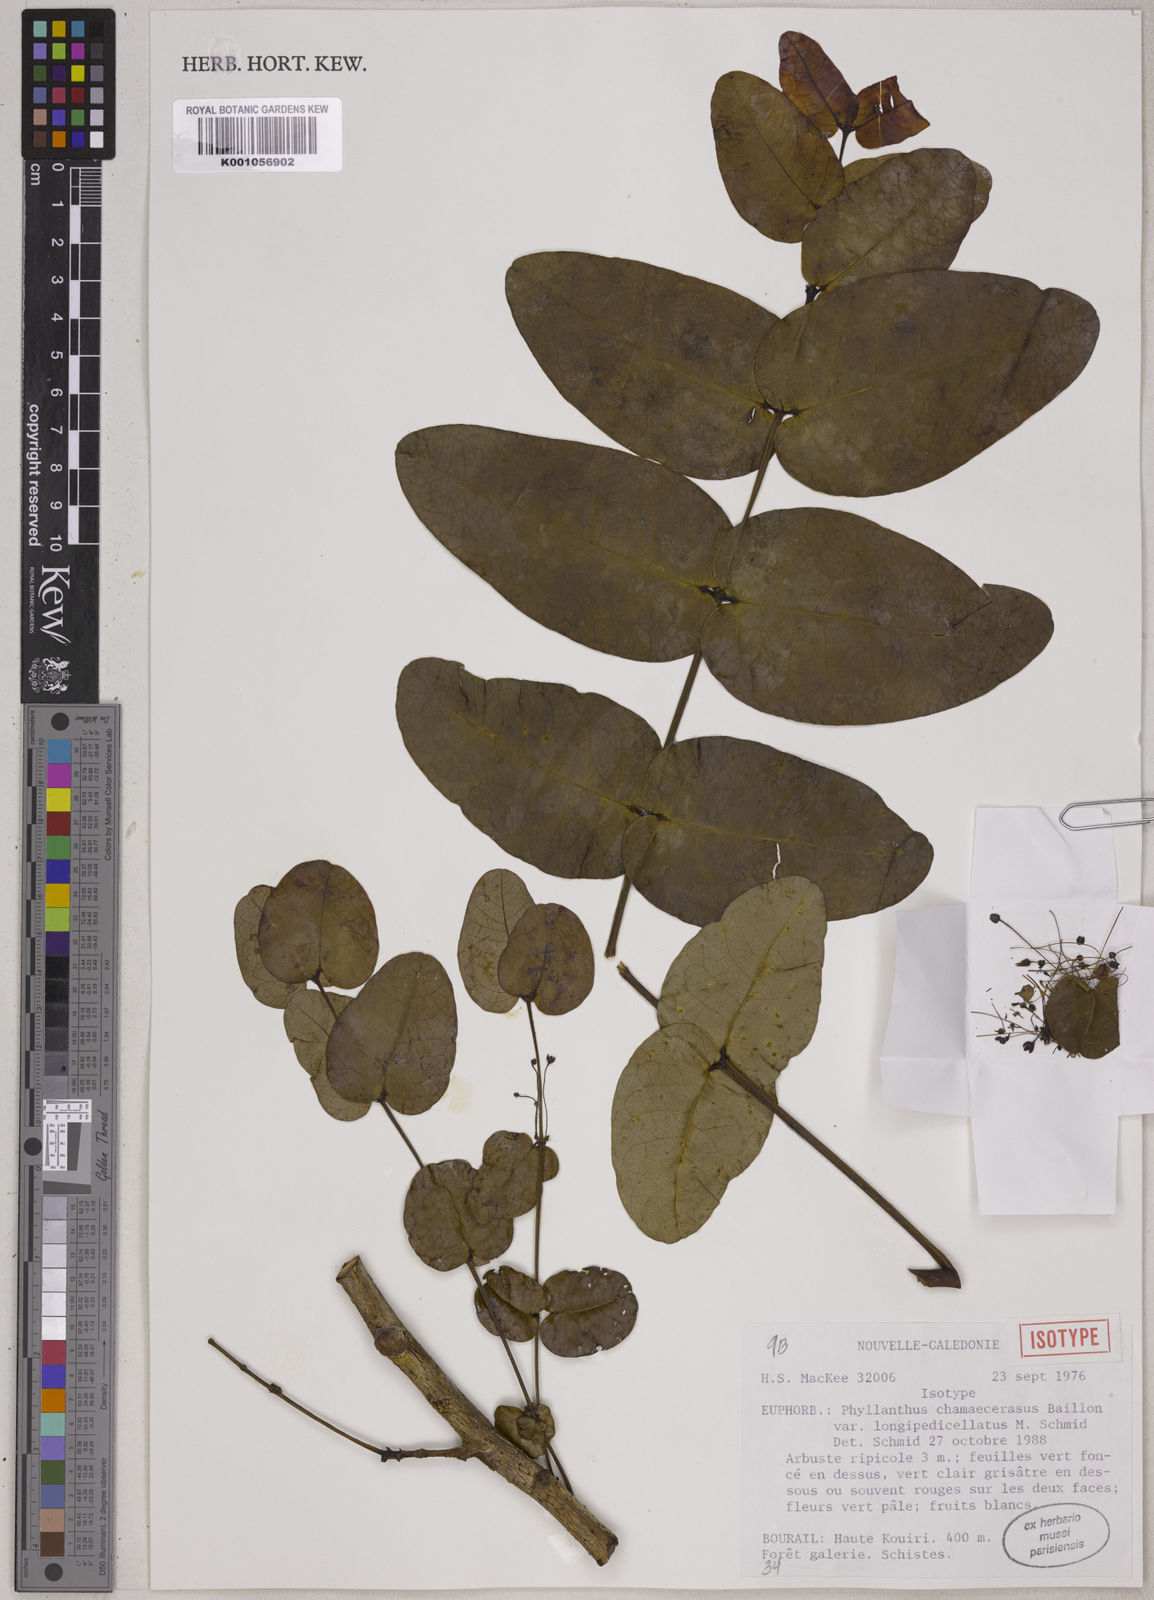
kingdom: Plantae
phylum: Tracheophyta
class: Magnoliopsida
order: Malpighiales
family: Phyllanthaceae
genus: Phyllanthus
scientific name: Phyllanthus chamaecerasus
